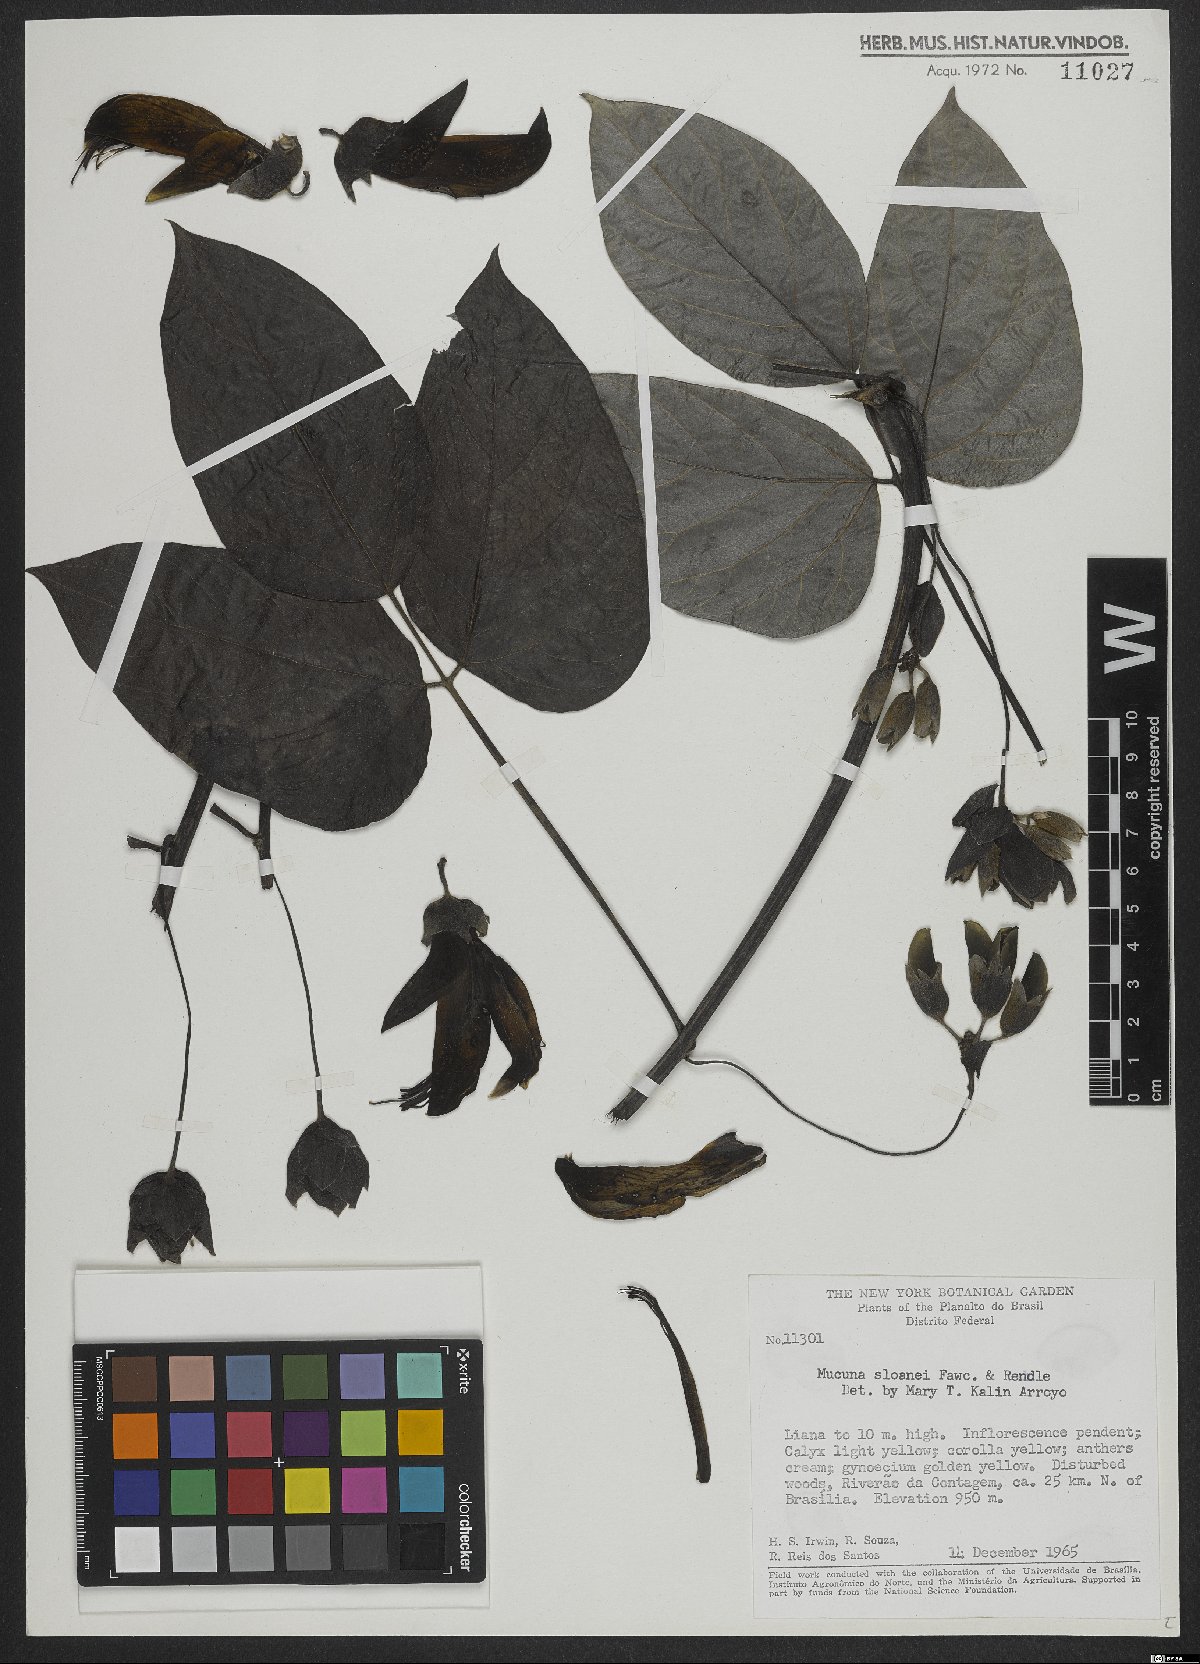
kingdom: Plantae
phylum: Tracheophyta
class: Magnoliopsida
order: Fabales
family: Fabaceae
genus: Mucuna
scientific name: Mucuna sloanei
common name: Horse-eye bean
